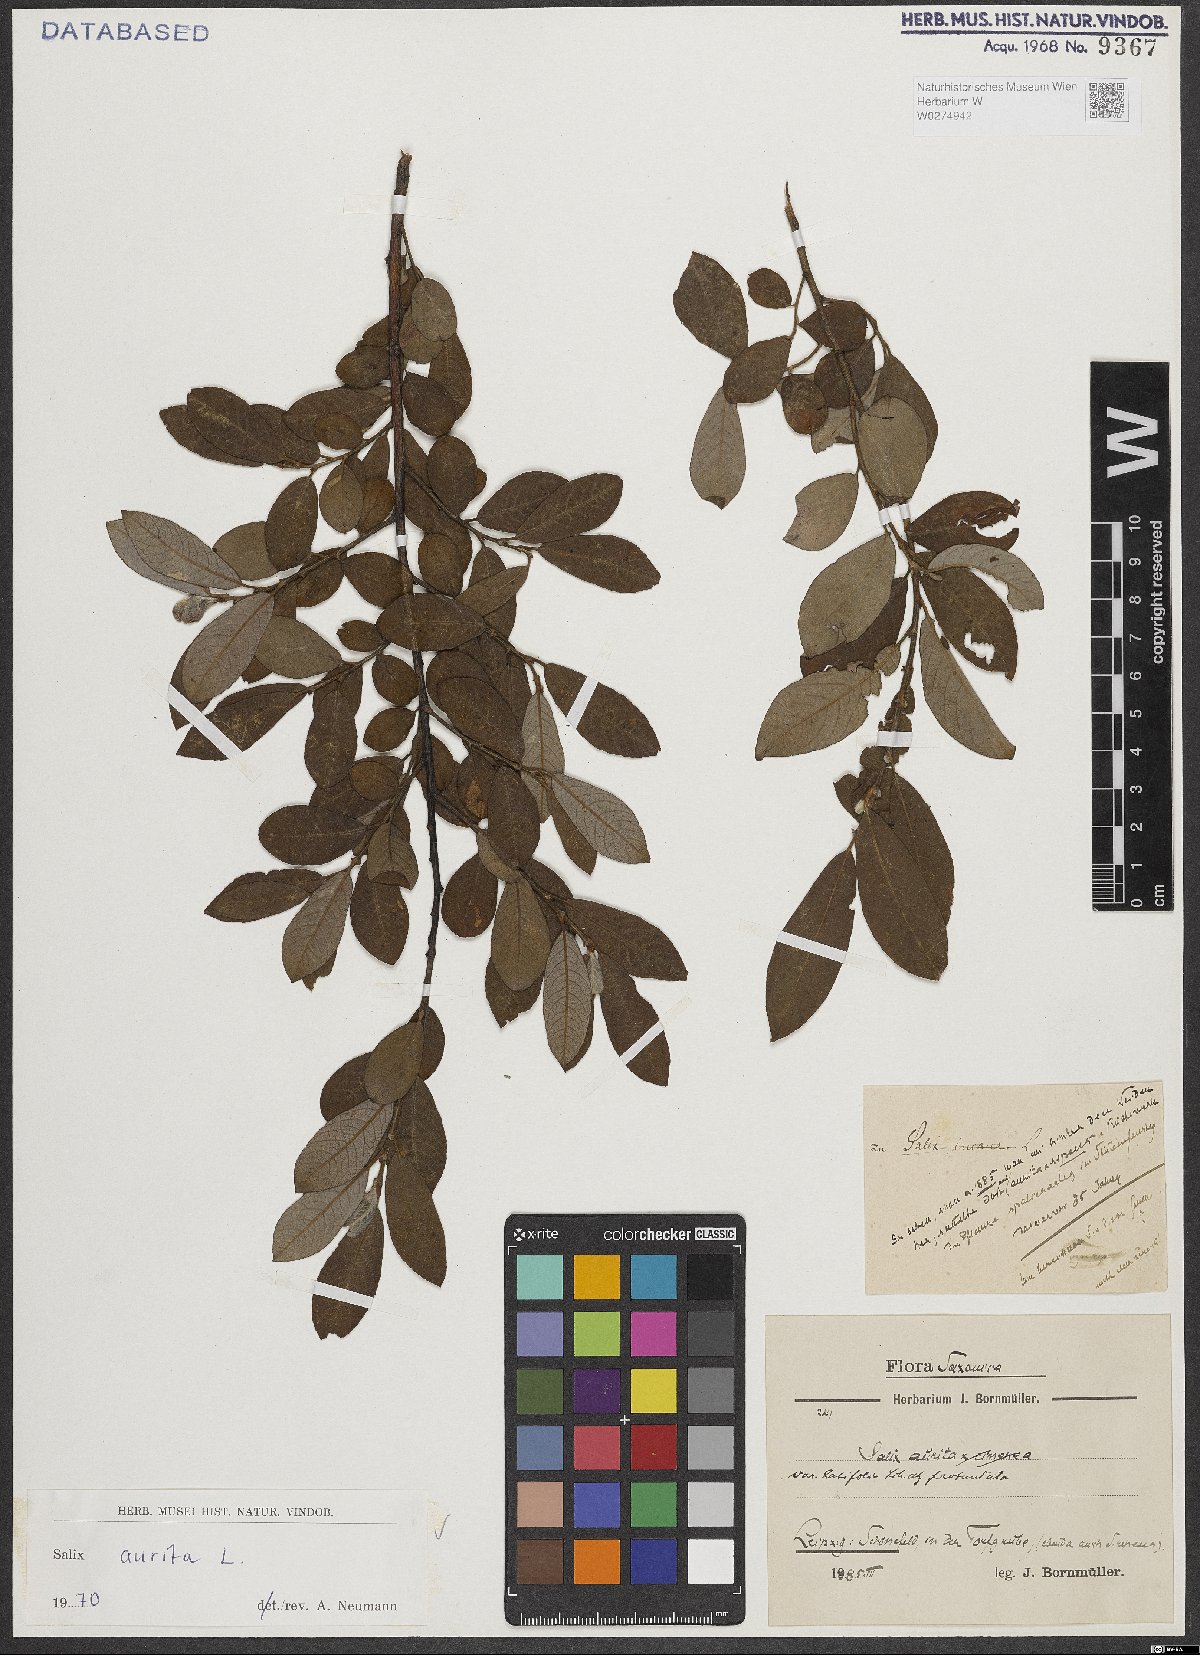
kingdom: Plantae
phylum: Tracheophyta
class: Magnoliopsida
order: Malpighiales
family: Salicaceae
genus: Salix
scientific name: Salix aurita
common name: Eared willow
